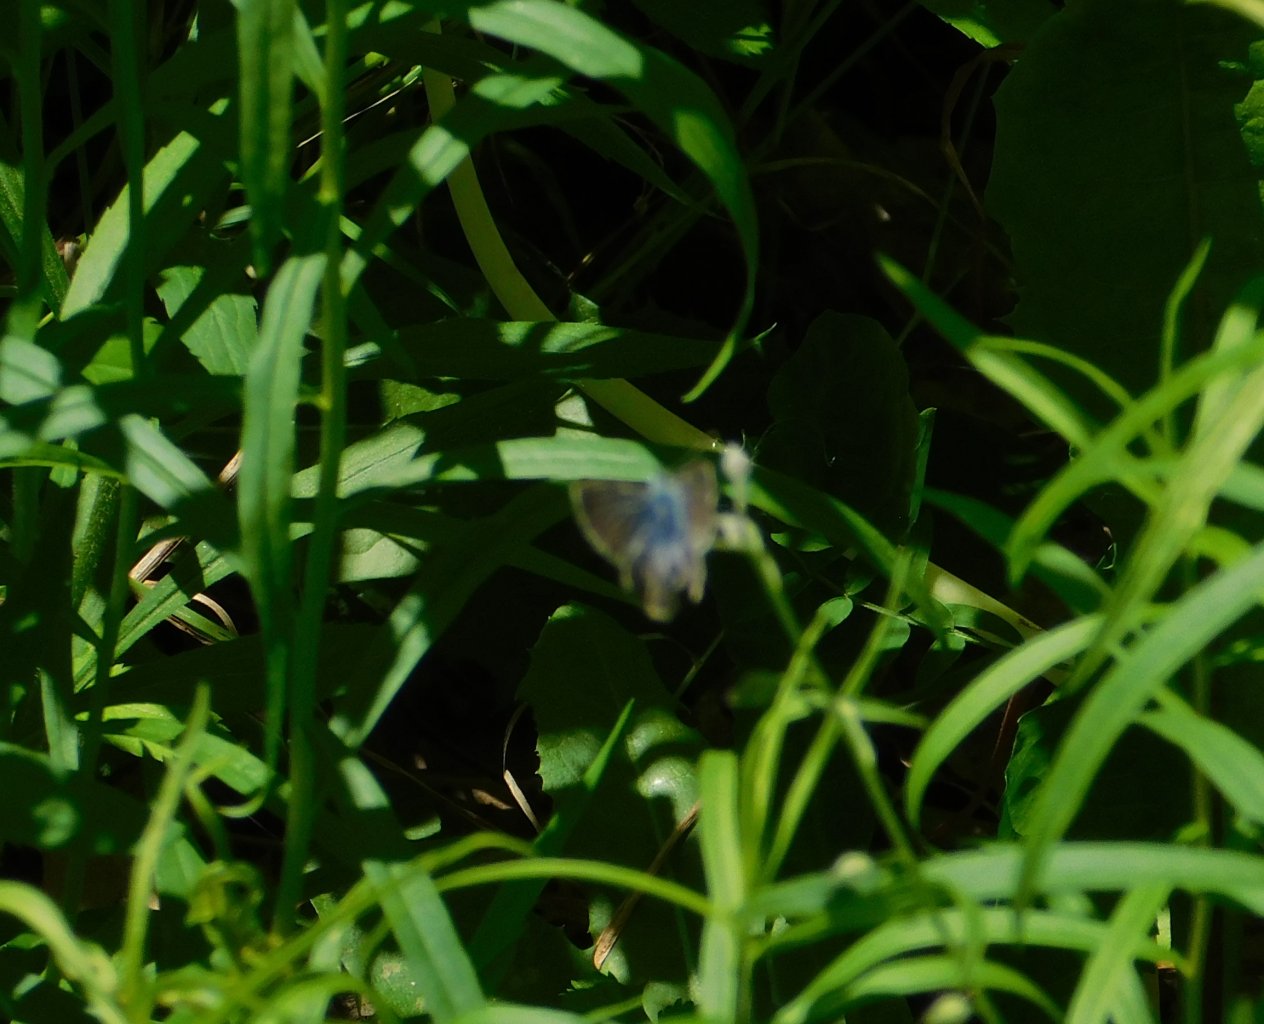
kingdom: Animalia
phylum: Arthropoda
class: Insecta
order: Lepidoptera
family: Lycaenidae
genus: Glaucopsyche
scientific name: Glaucopsyche lygdamus
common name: Silvery Blue
